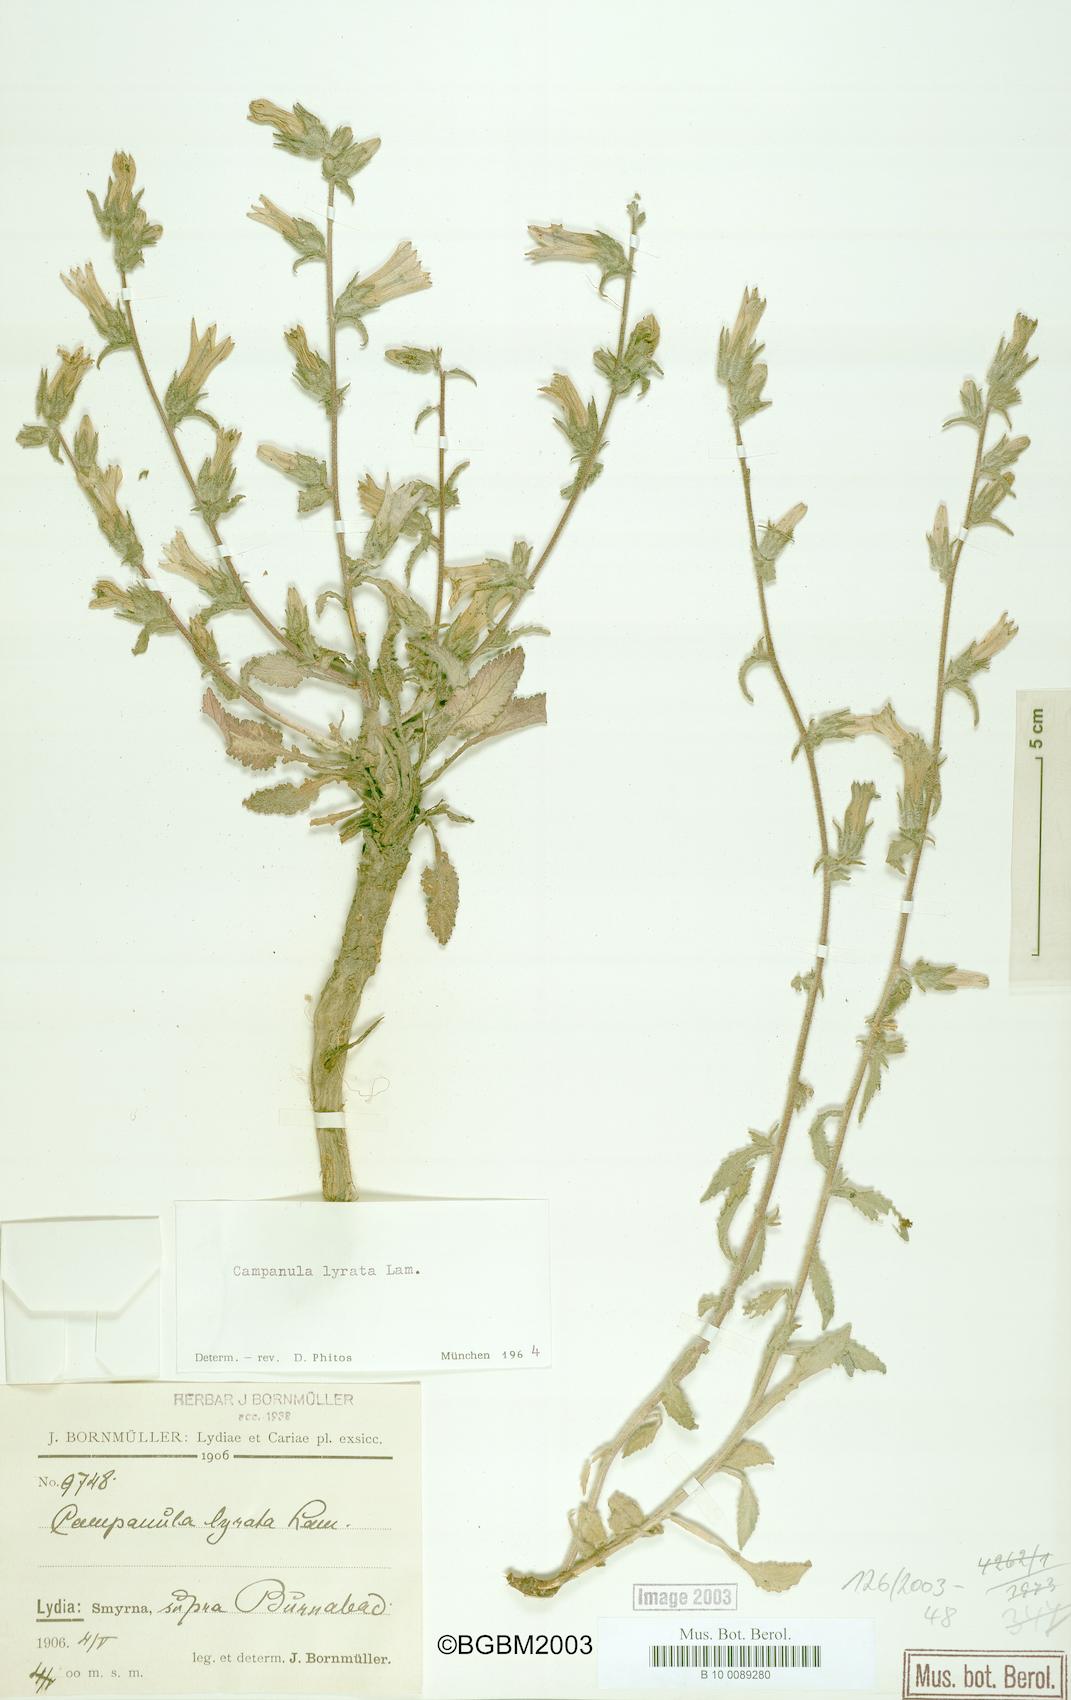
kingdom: Plantae
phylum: Tracheophyta
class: Magnoliopsida
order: Asterales
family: Campanulaceae
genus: Campanula
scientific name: Campanula lyrata
